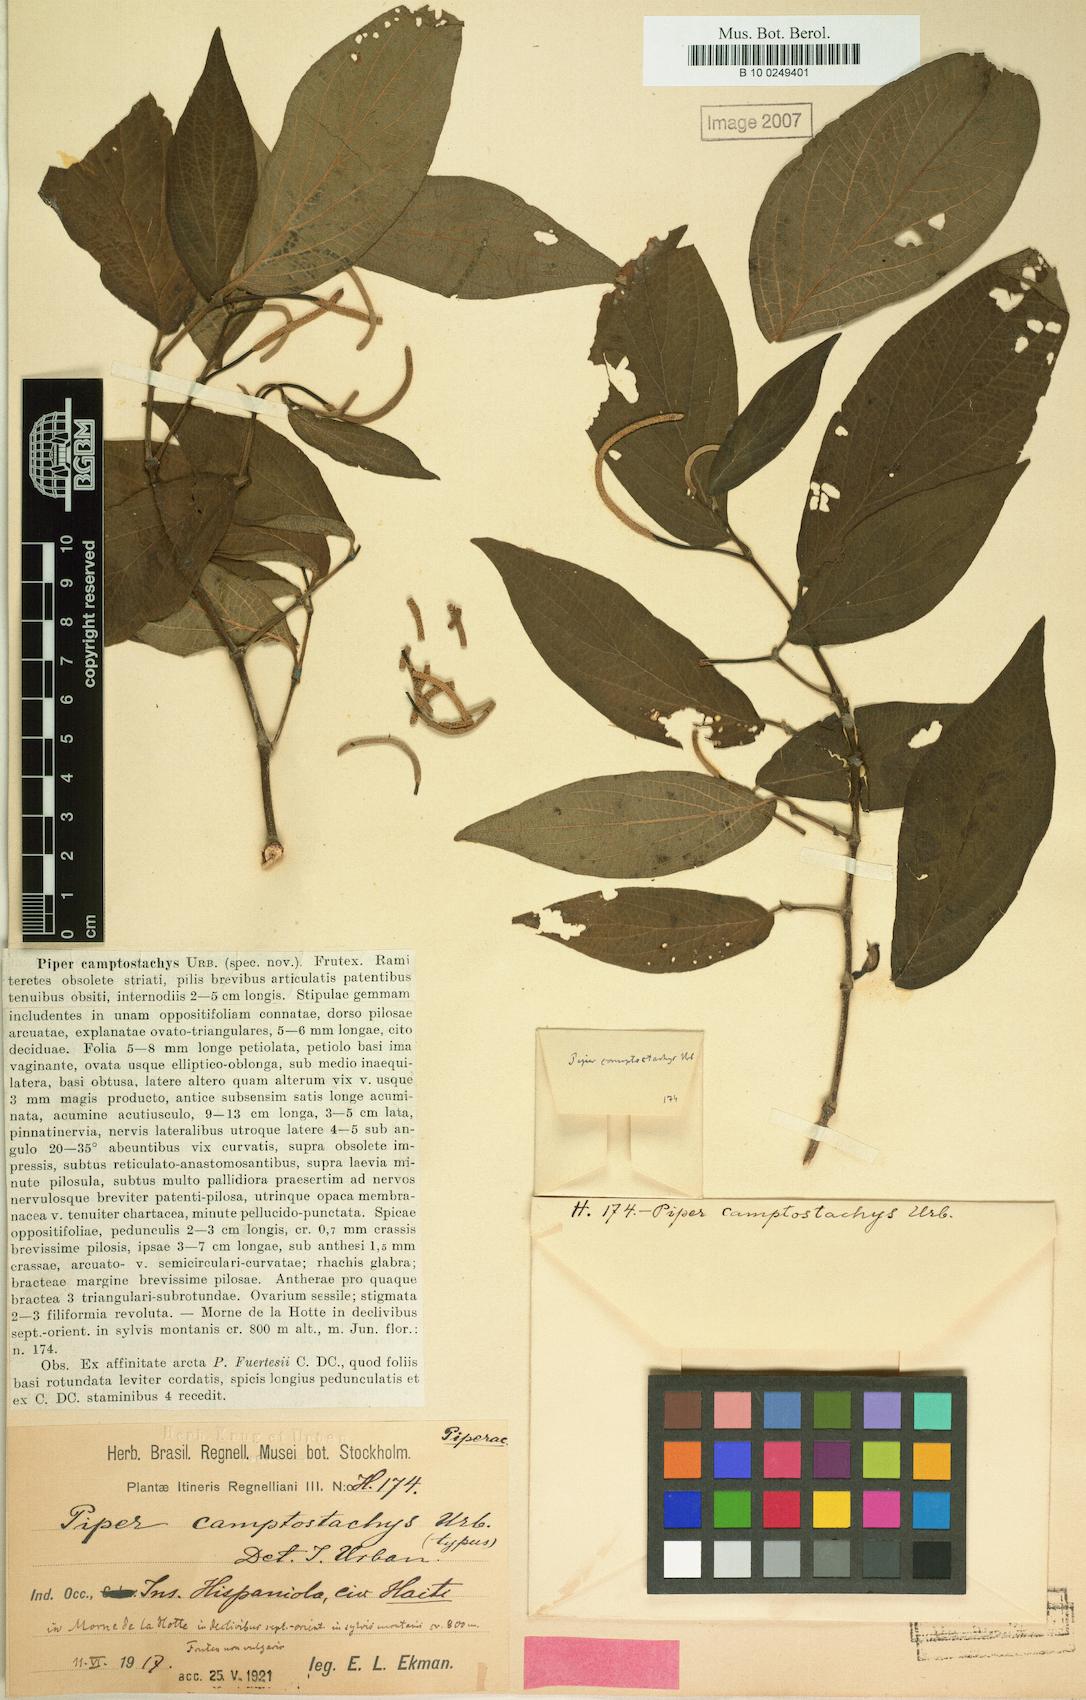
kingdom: Plantae
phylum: Tracheophyta
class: Magnoliopsida
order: Piperales
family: Piperaceae
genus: Piper
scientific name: Piper camptostachys
